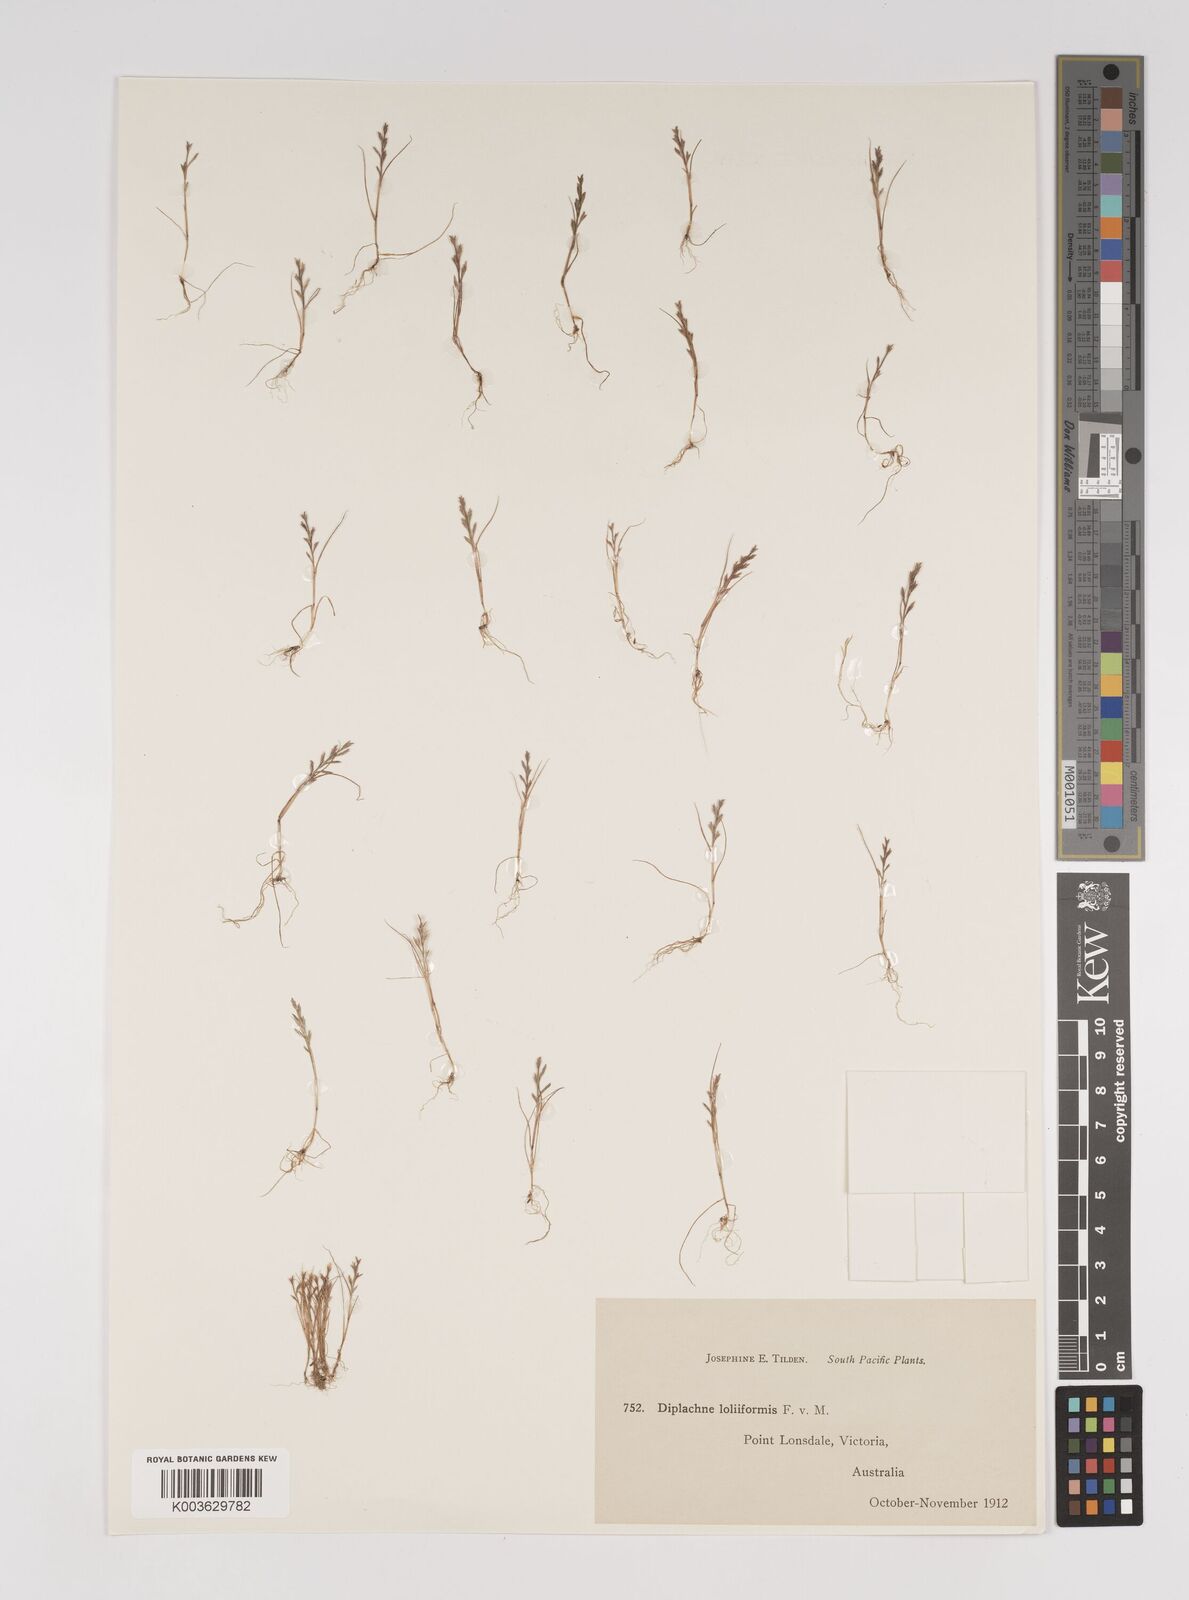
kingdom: Plantae
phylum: Tracheophyta
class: Liliopsida
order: Poales
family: Poaceae
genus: Tripogonella
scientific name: Tripogonella loliiformis
